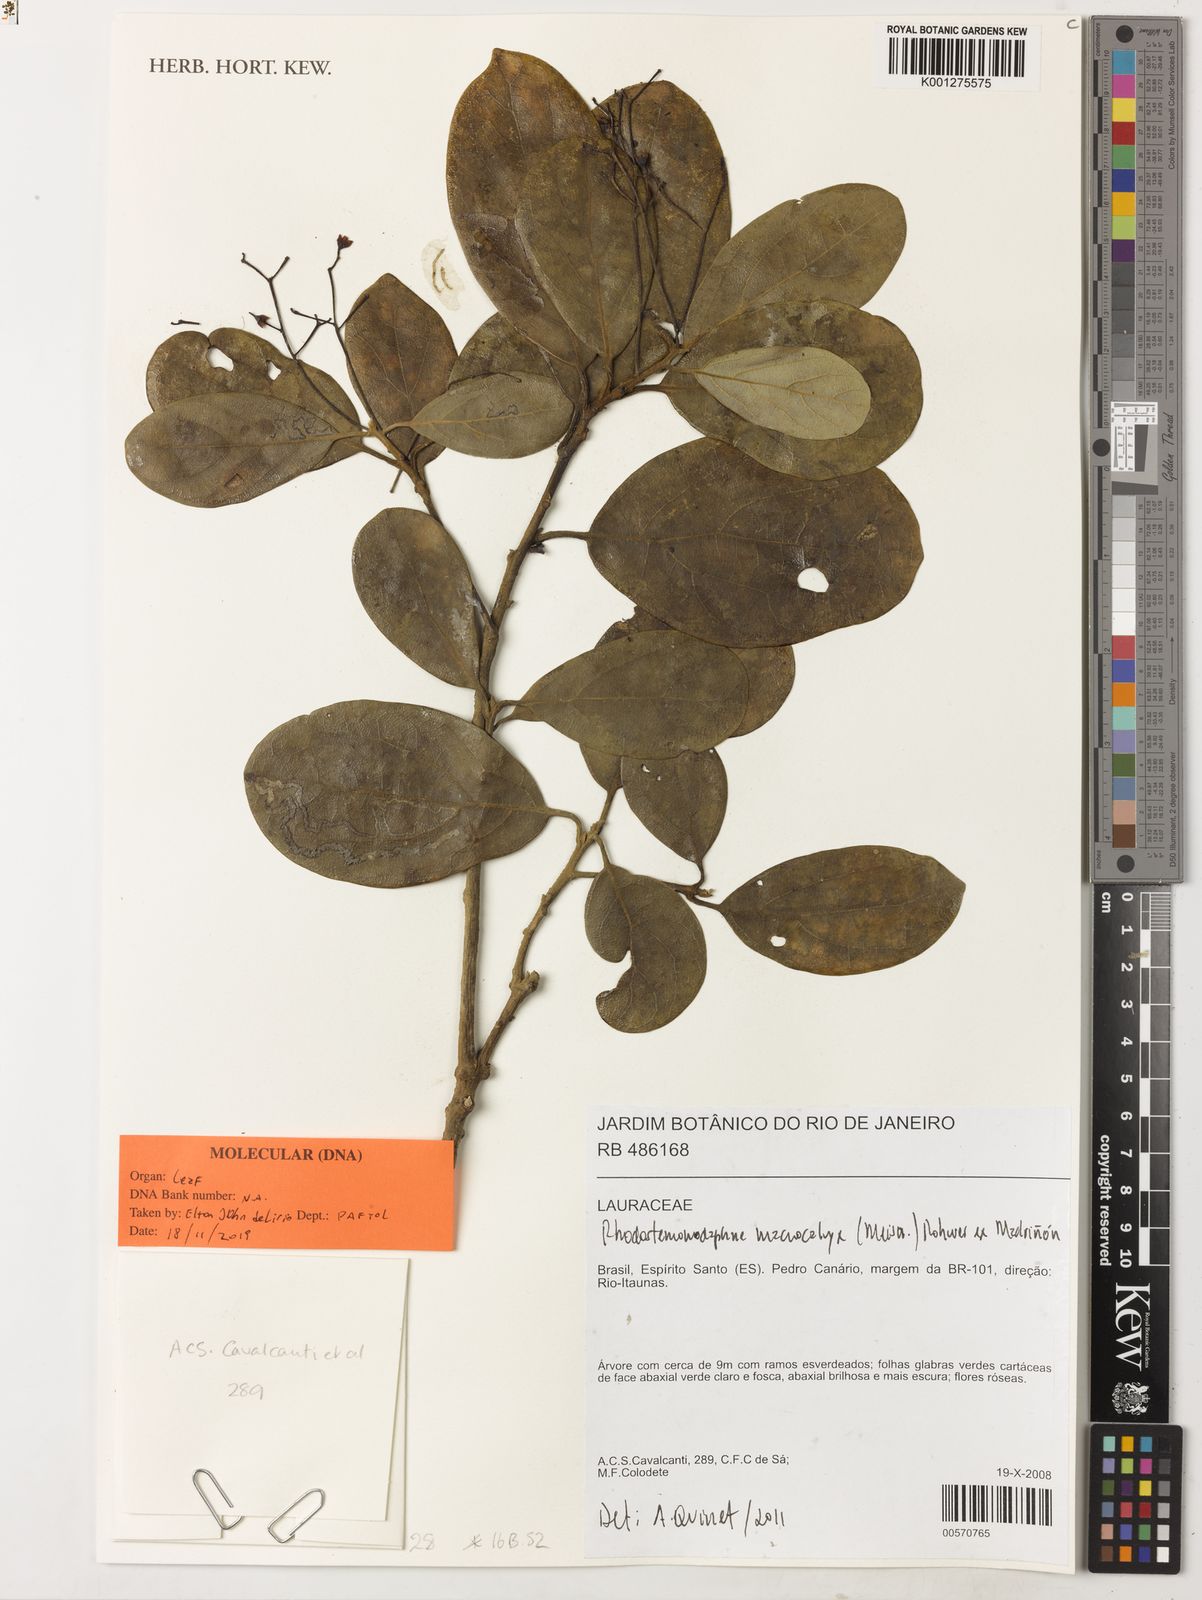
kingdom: Plantae
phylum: Tracheophyta
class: Magnoliopsida
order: Laurales
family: Lauraceae
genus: Rhodostemonodaphne
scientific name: Rhodostemonodaphne
